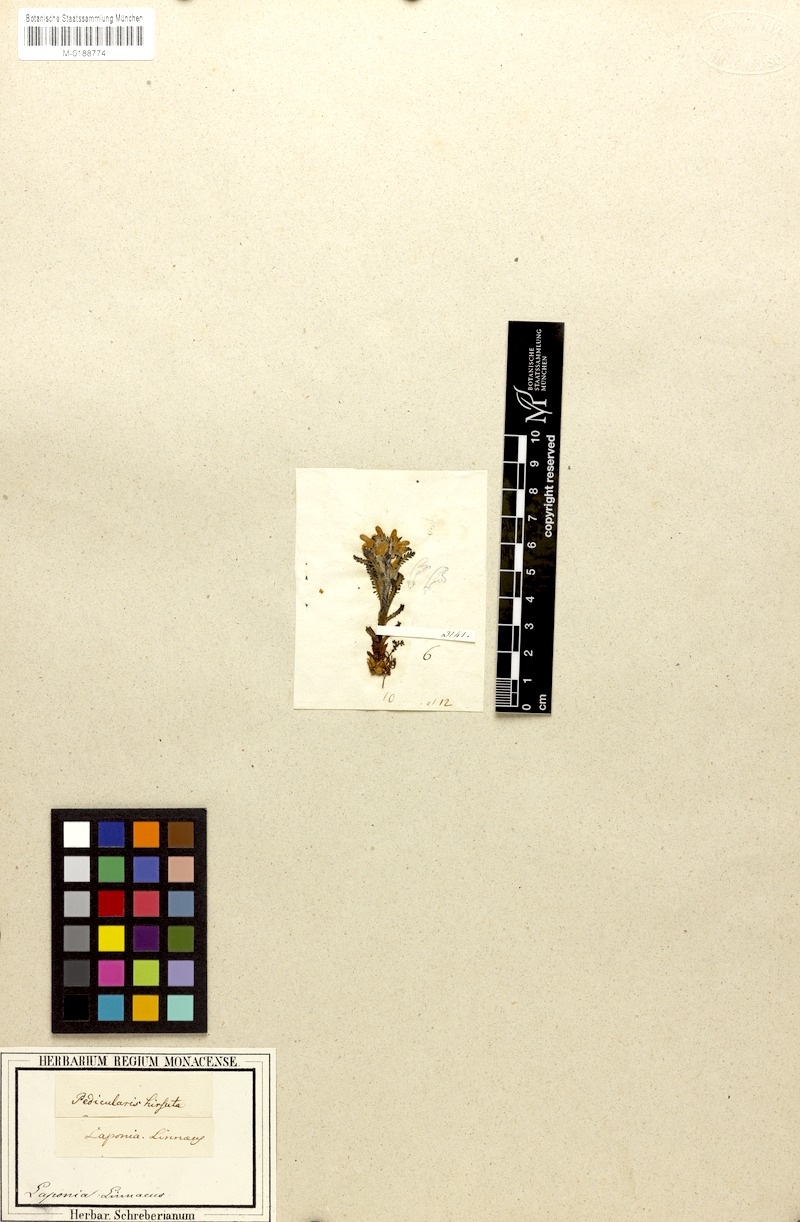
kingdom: Plantae
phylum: Tracheophyta
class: Magnoliopsida
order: Lamiales
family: Orobanchaceae
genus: Pedicularis
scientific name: Pedicularis hirsuta
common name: Hairy lousewort
